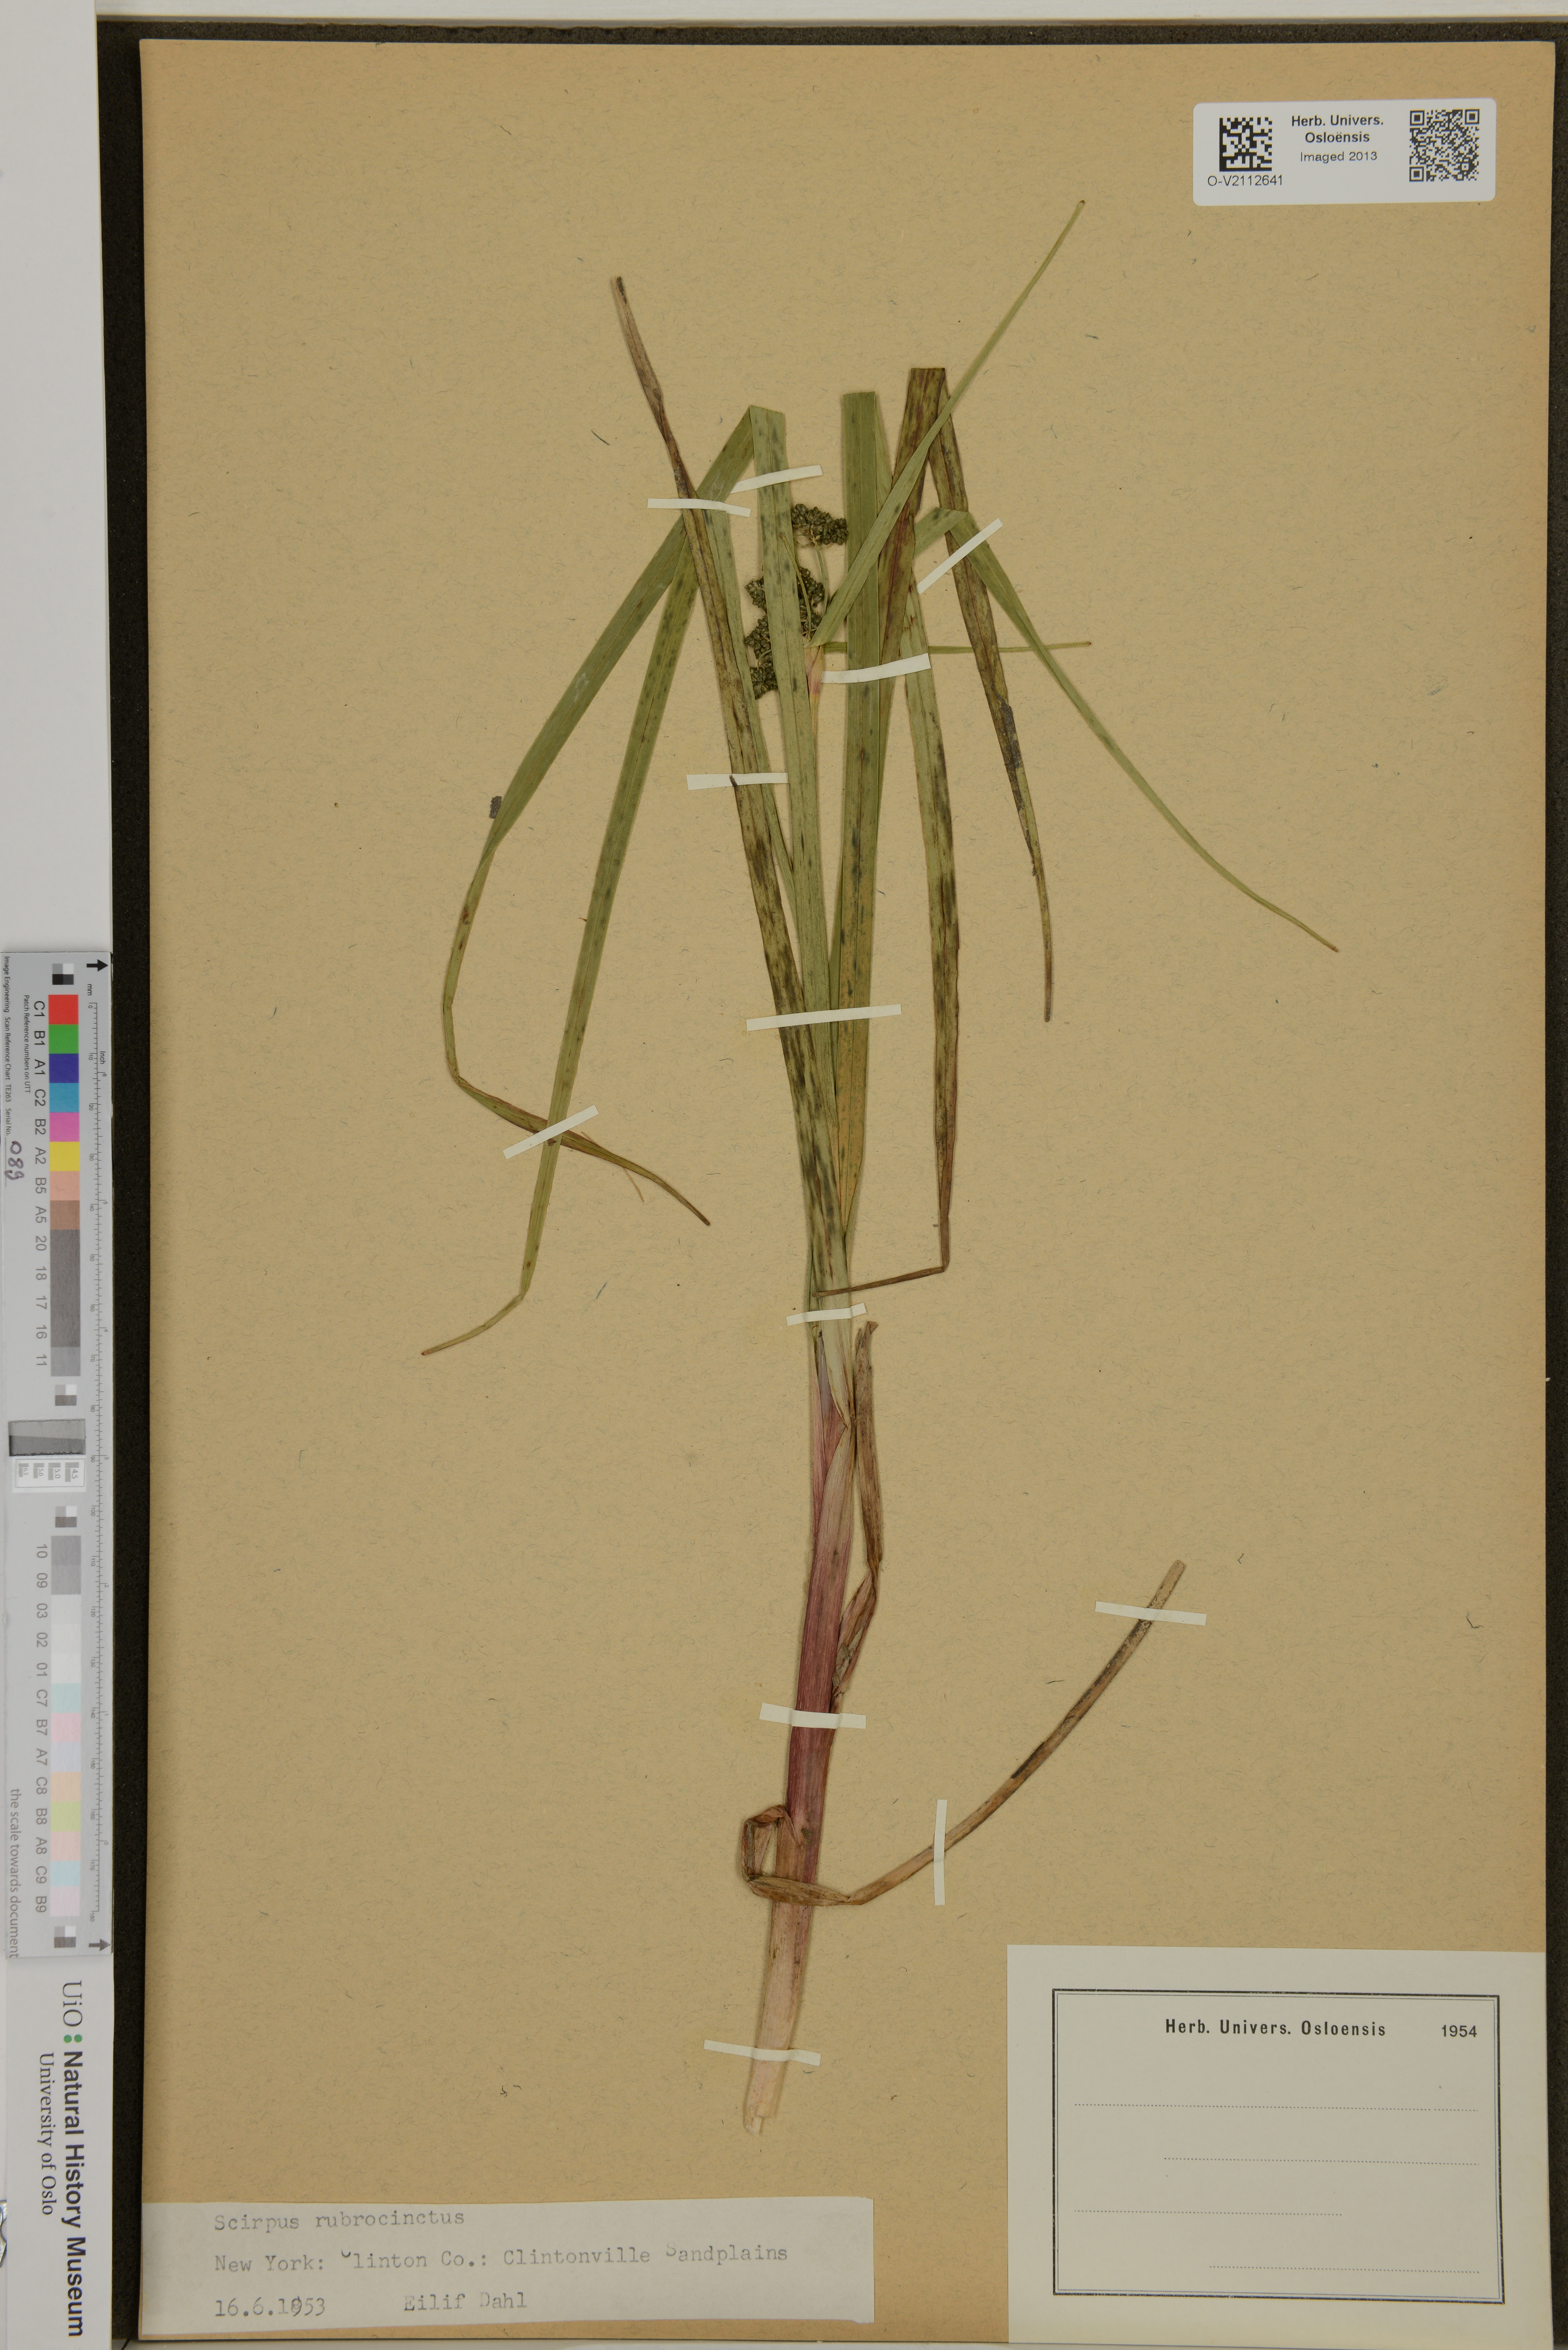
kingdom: Plantae
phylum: Tracheophyta
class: Liliopsida
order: Poales
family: Cyperaceae
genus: Scirpus
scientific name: Scirpus microcarpus
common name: Panicled bulrush
